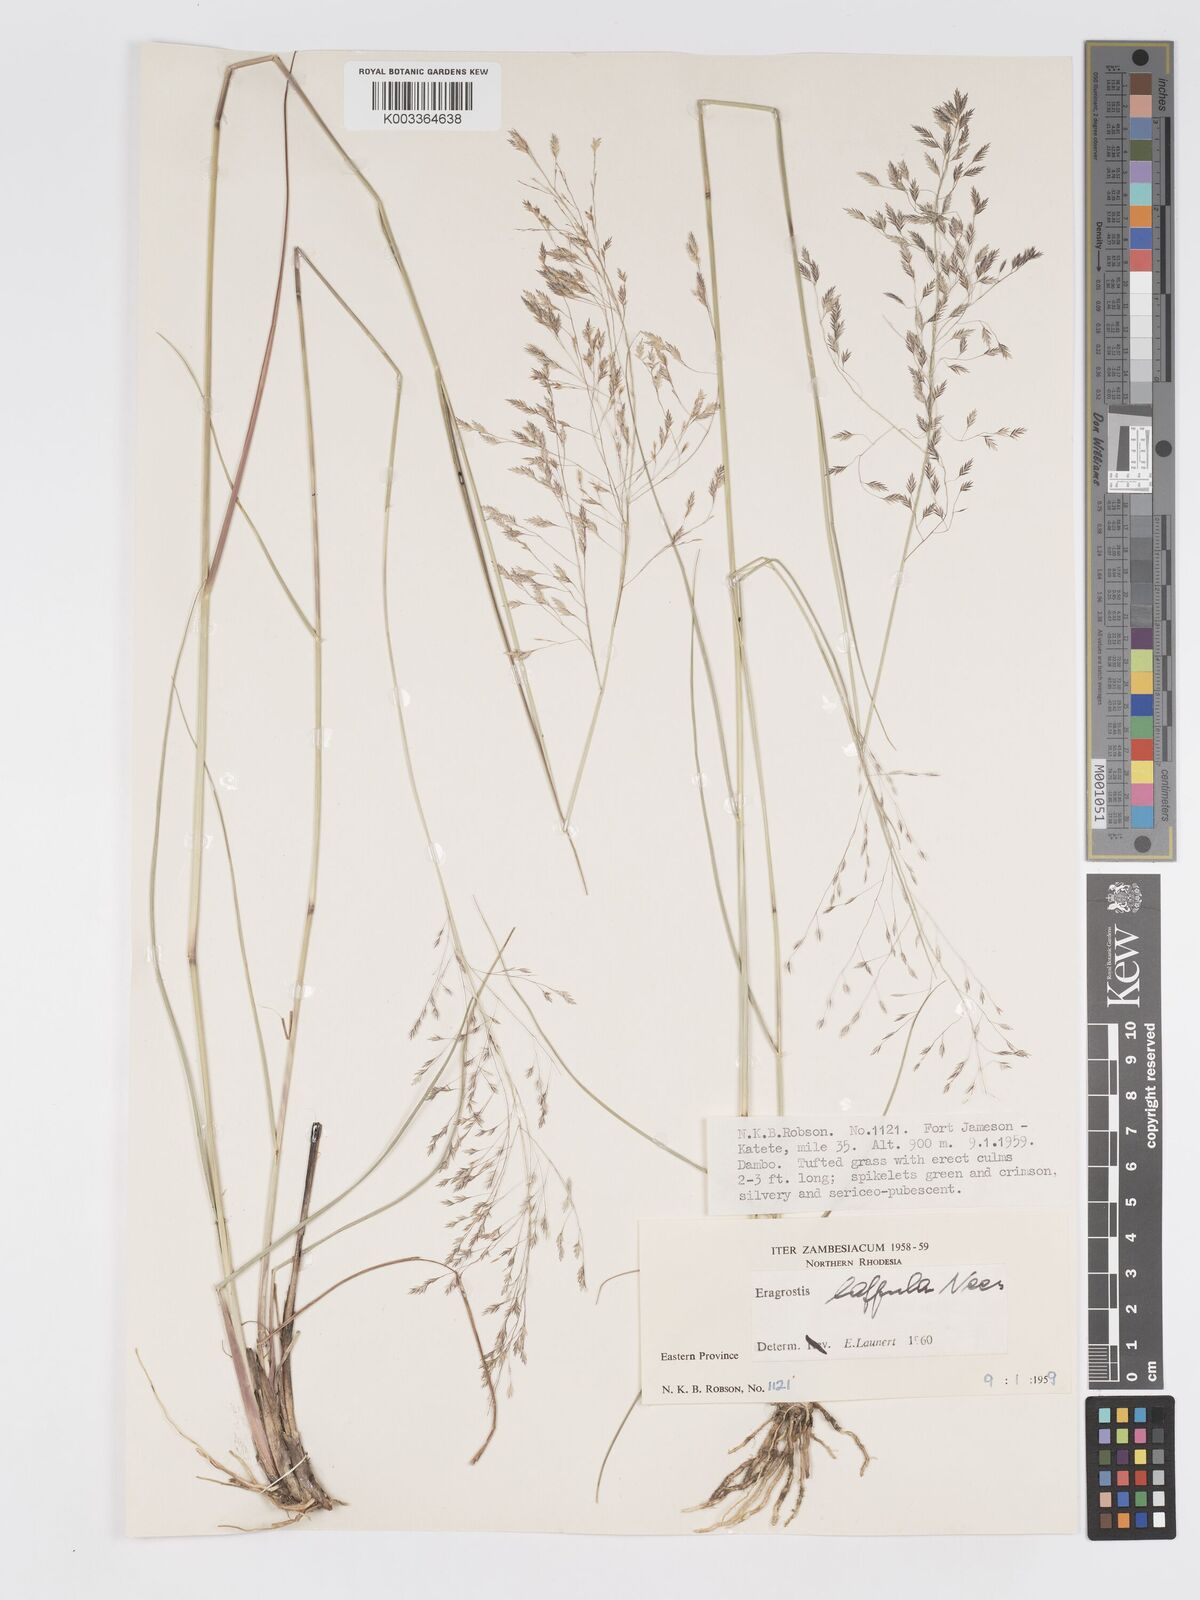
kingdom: Plantae
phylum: Tracheophyta
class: Liliopsida
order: Poales
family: Poaceae
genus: Eragrostis
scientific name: Eragrostis lappula
